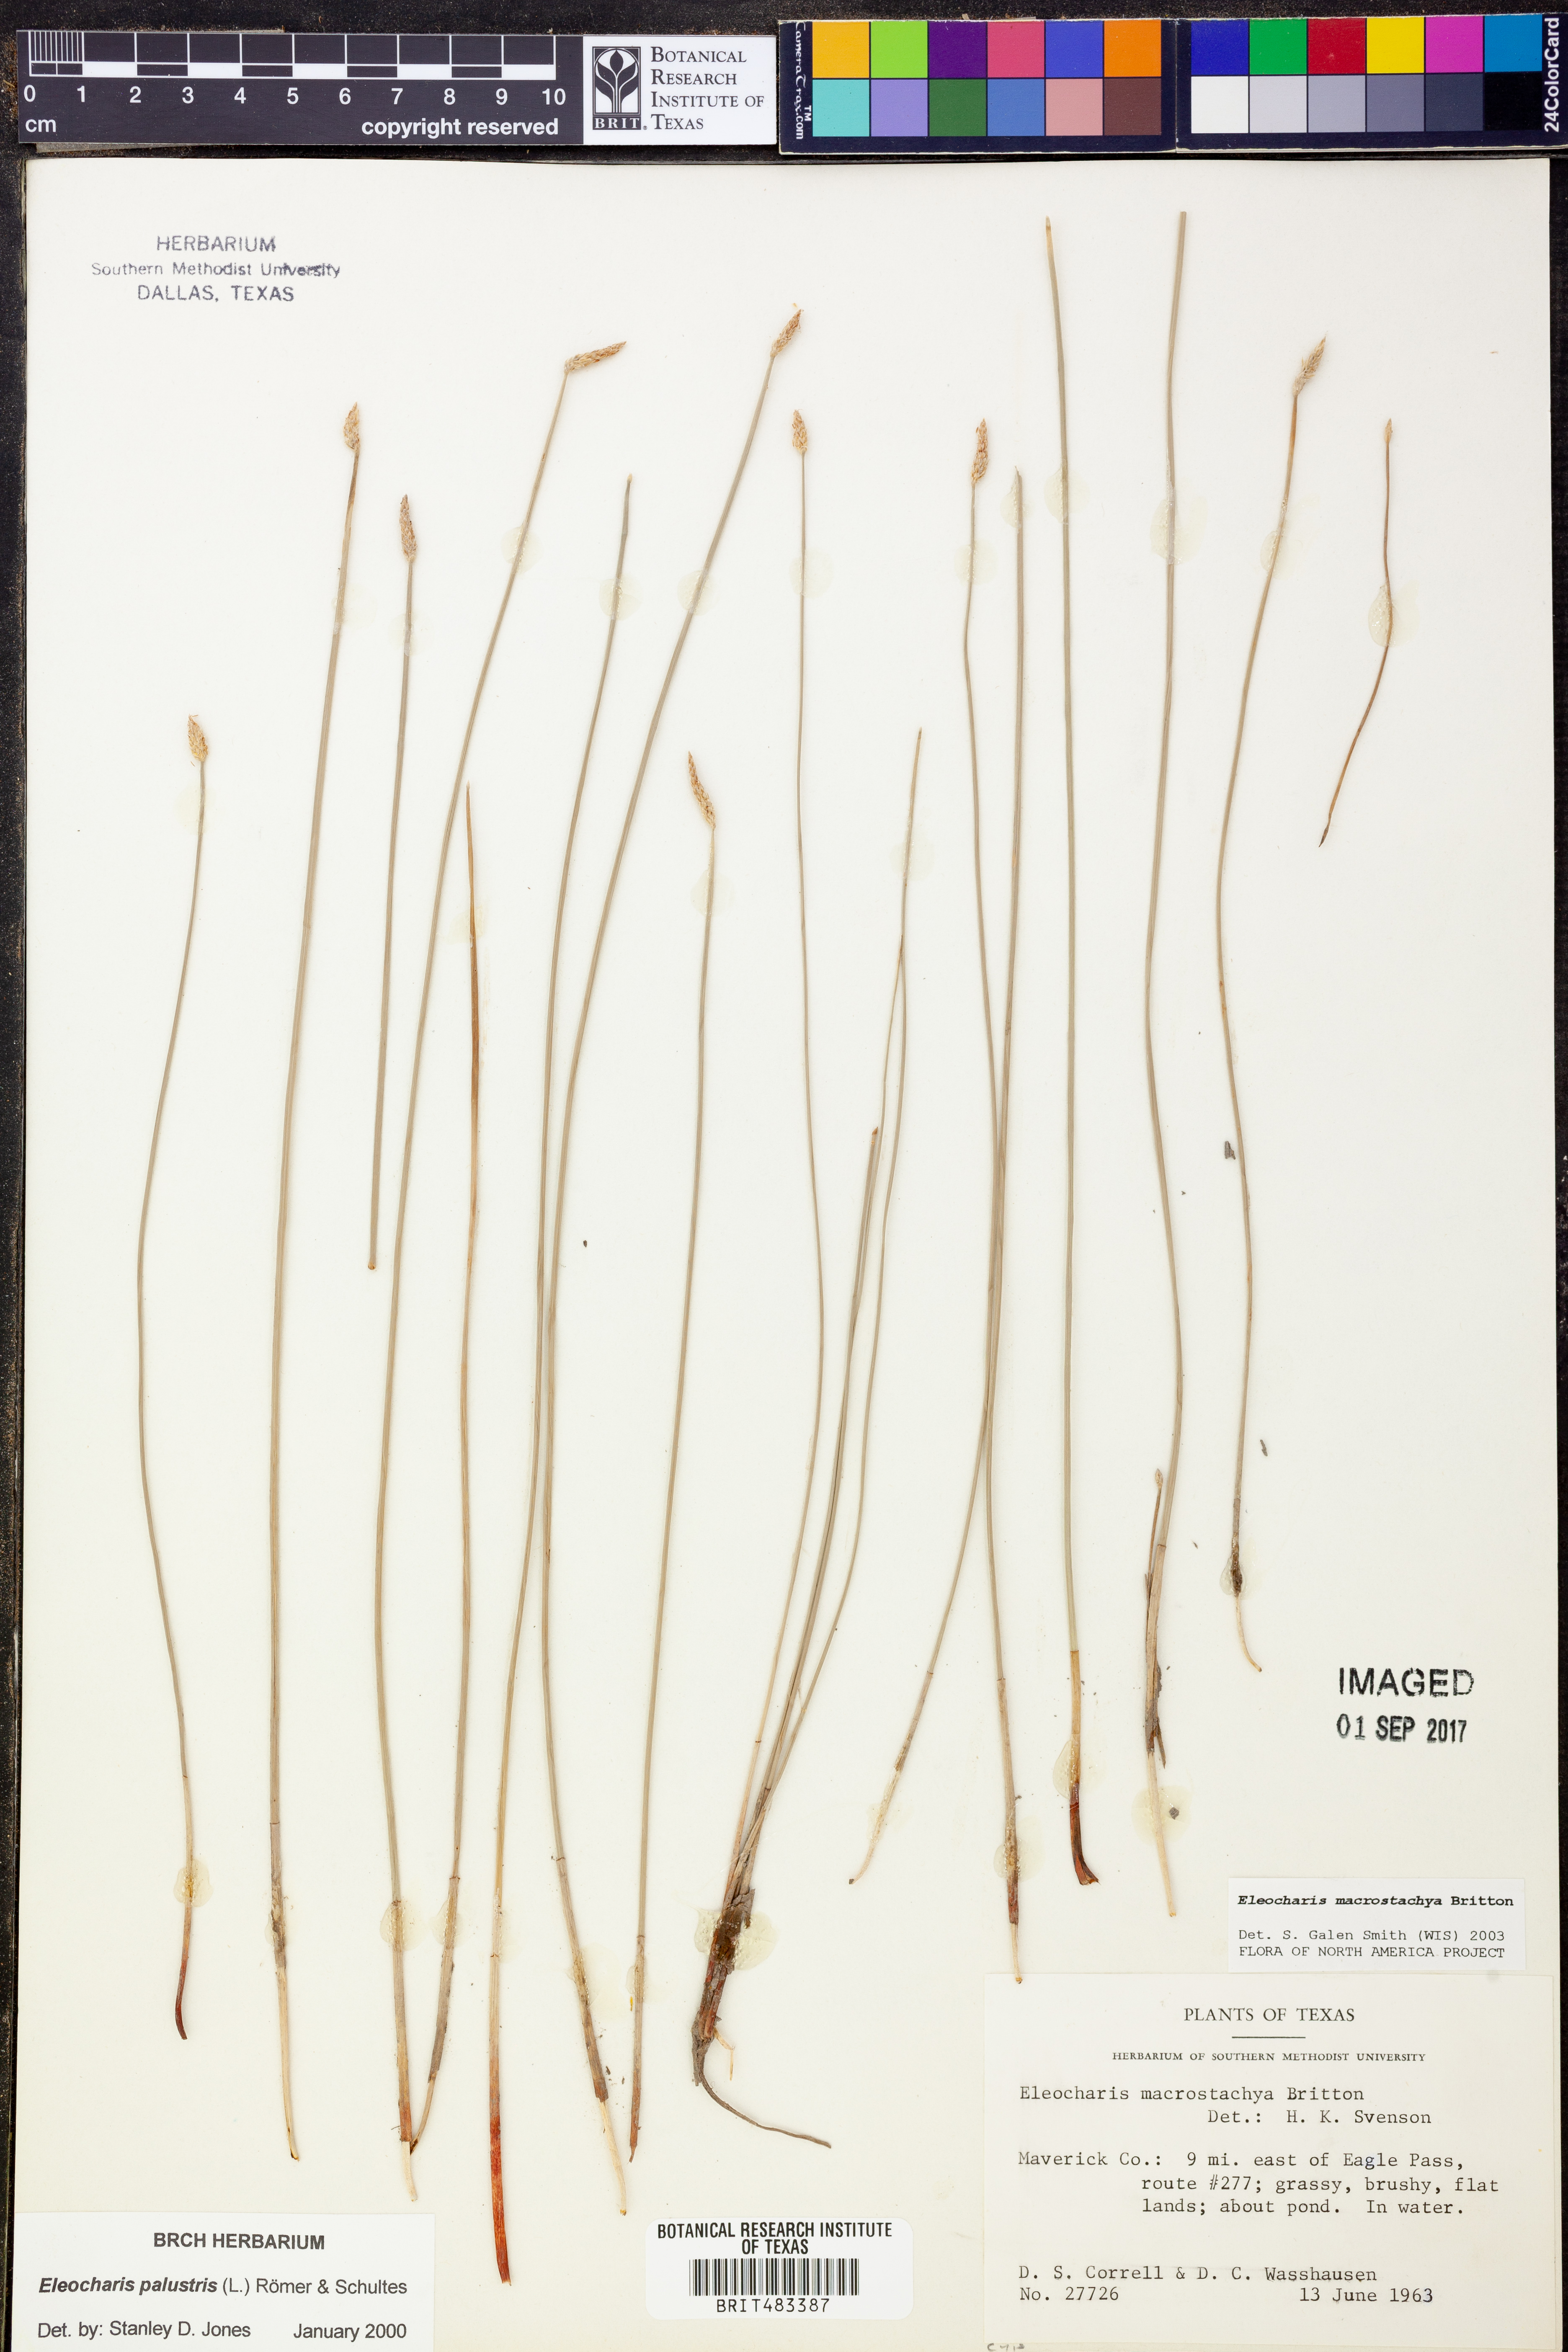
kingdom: Plantae
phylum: Tracheophyta
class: Liliopsida
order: Poales
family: Cyperaceae
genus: Eleocharis
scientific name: Eleocharis macrostachya
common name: Pale spikerush
